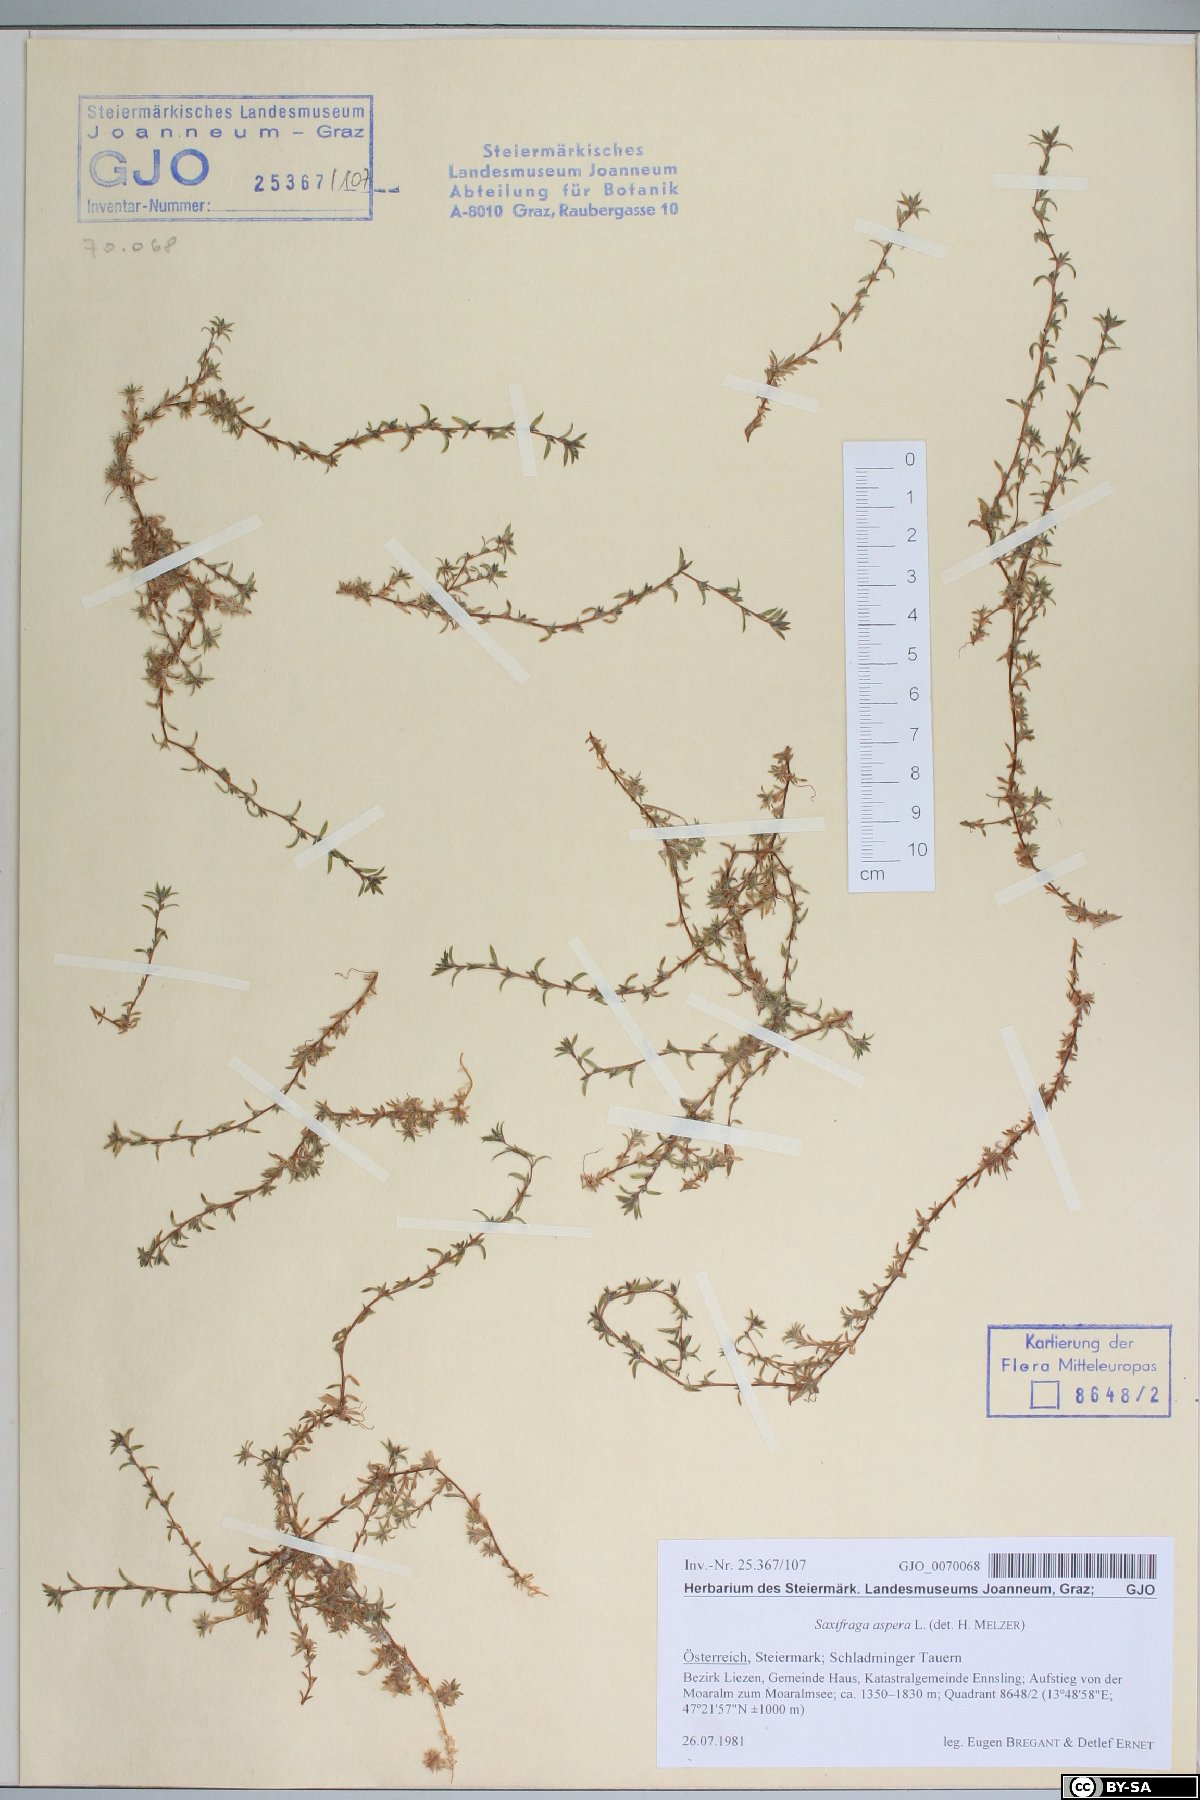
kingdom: Plantae
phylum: Tracheophyta
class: Magnoliopsida
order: Saxifragales
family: Saxifragaceae
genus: Saxifraga
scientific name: Saxifraga aspera
